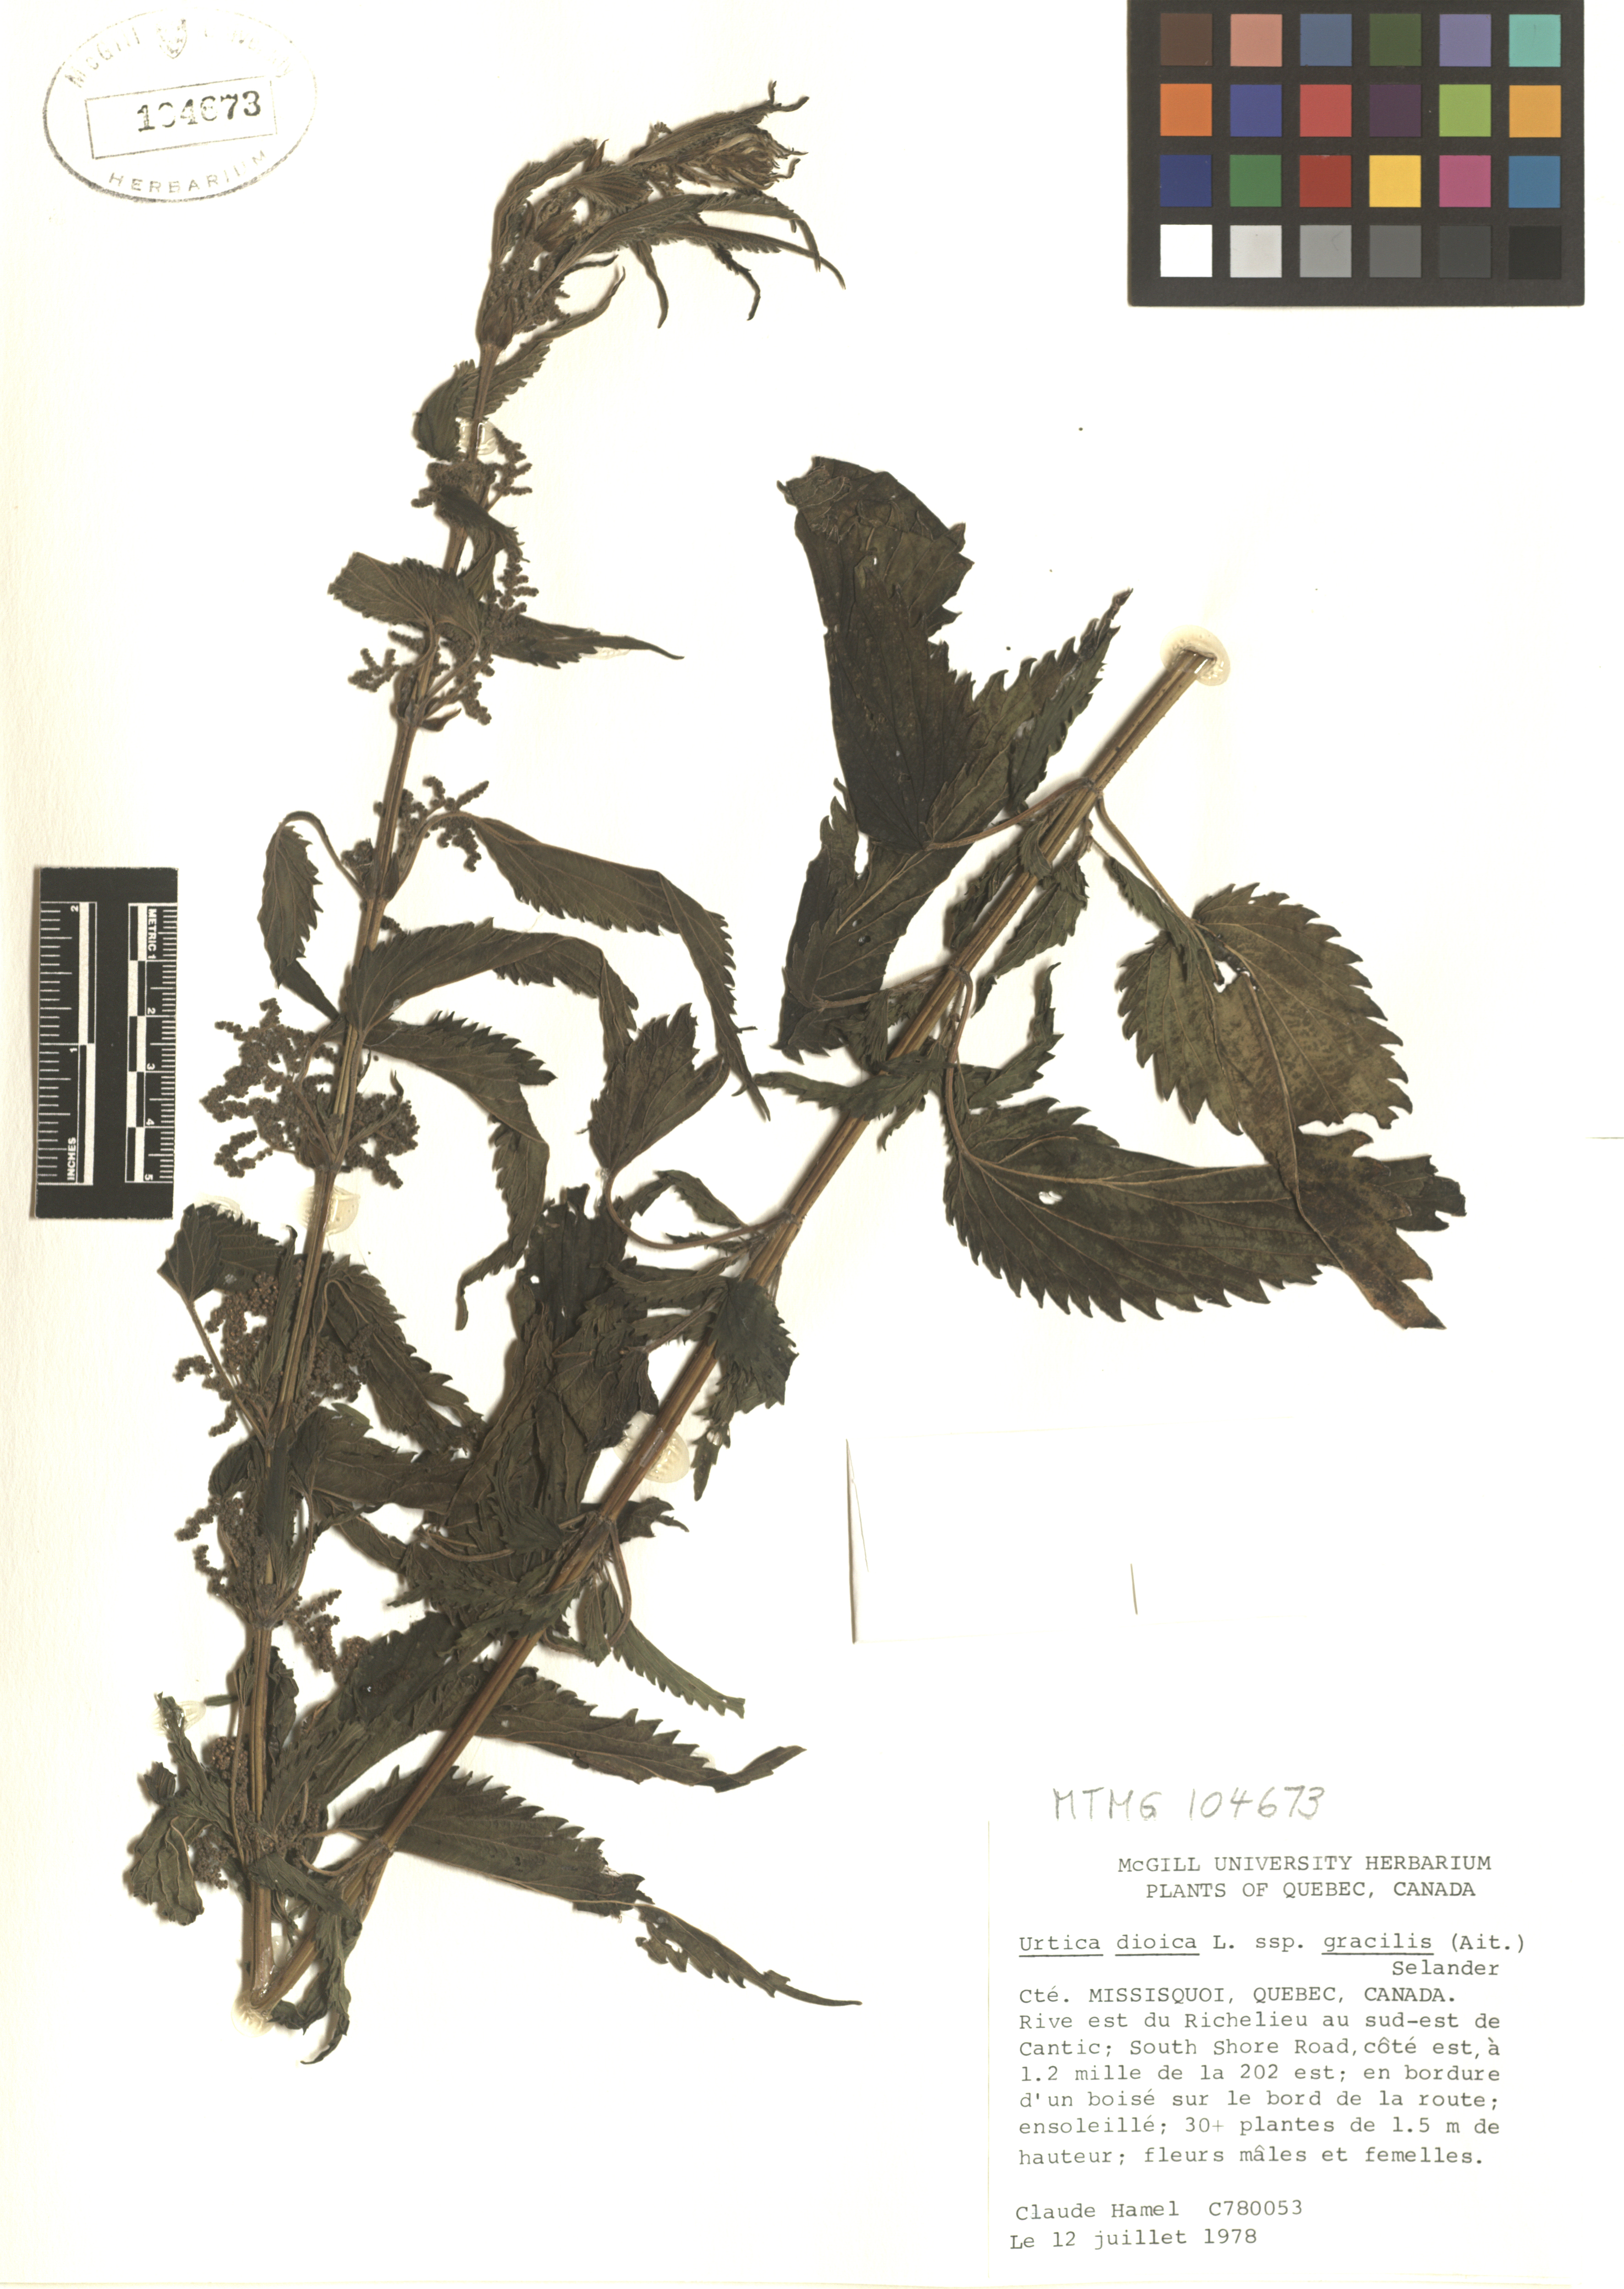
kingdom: Plantae
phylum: Tracheophyta
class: Magnoliopsida
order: Rosales
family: Urticaceae
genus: Urtica
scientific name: Urtica gracilis
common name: Slender stinging nettle
